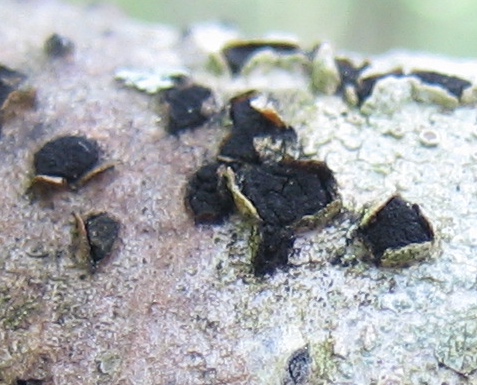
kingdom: Fungi
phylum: Ascomycota
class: Sordariomycetes
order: Xylariales
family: Diatrypaceae
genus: Diatrypella
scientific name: Diatrypella quercina
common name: ege-kulskorpe
